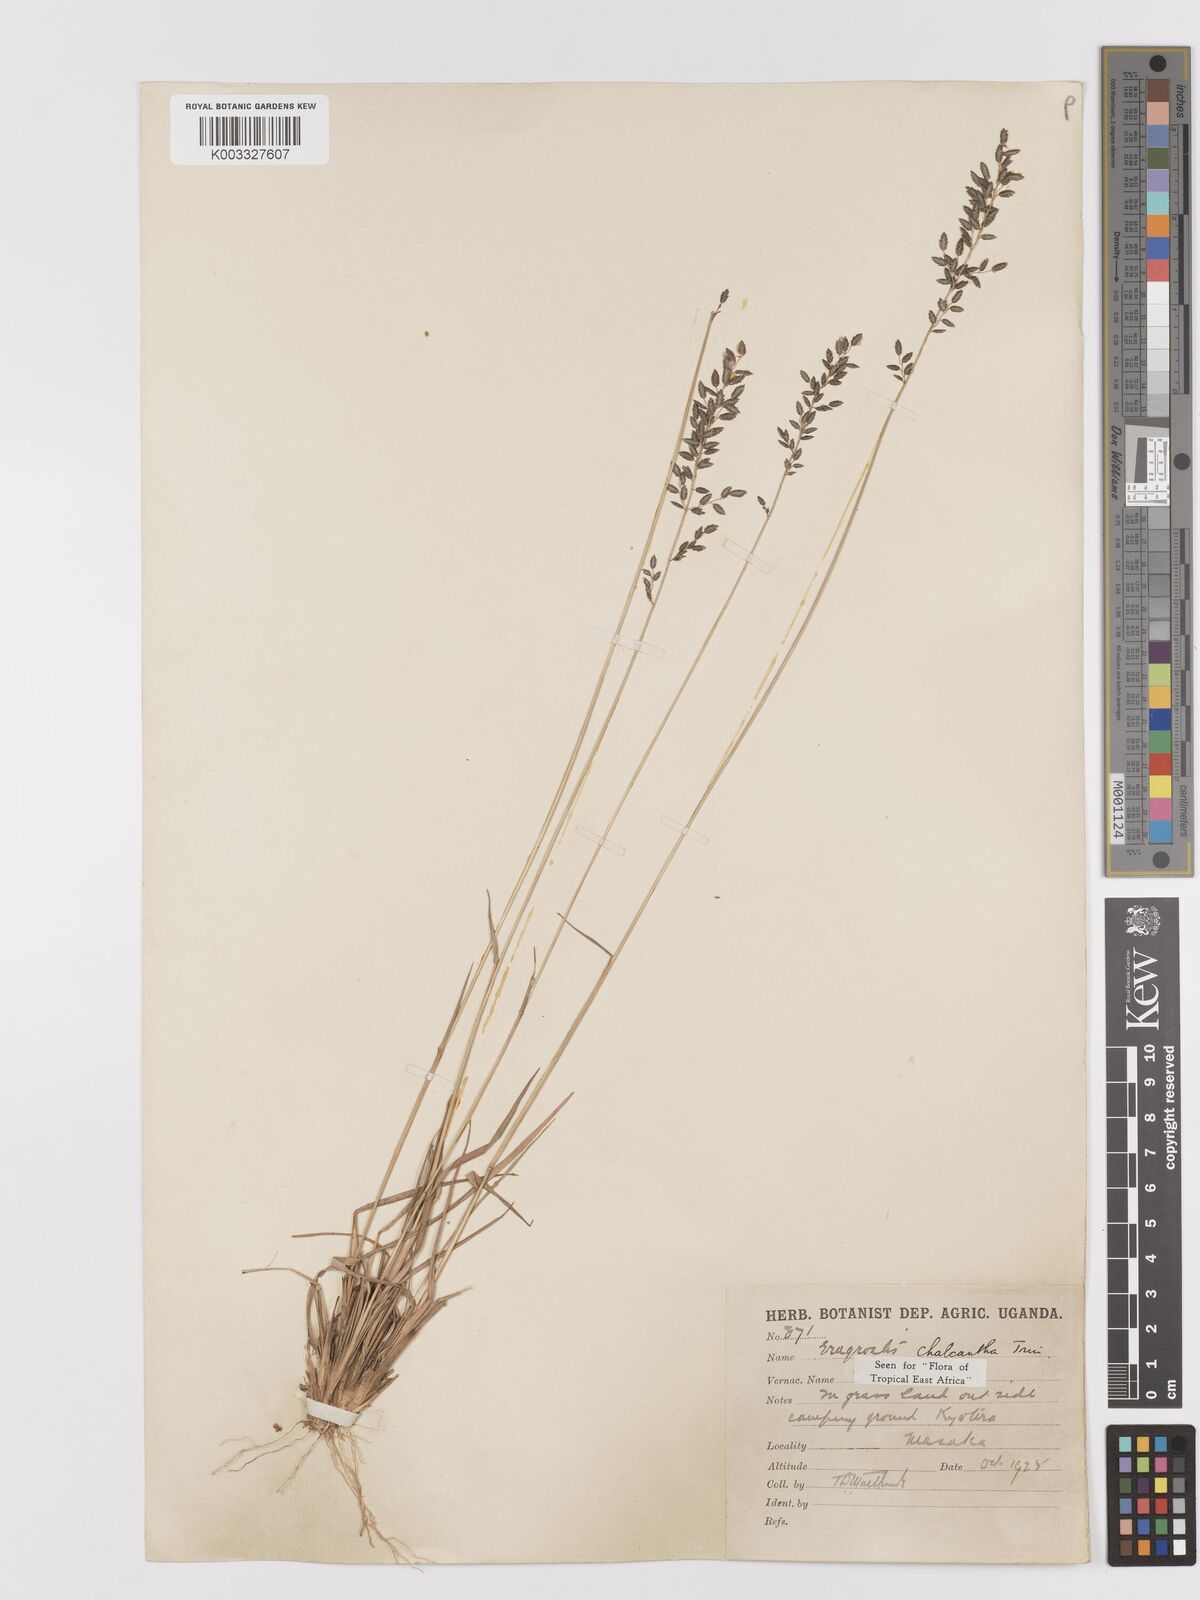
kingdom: Plantae
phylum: Tracheophyta
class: Liliopsida
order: Poales
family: Poaceae
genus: Eragrostis
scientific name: Eragrostis racemosa
